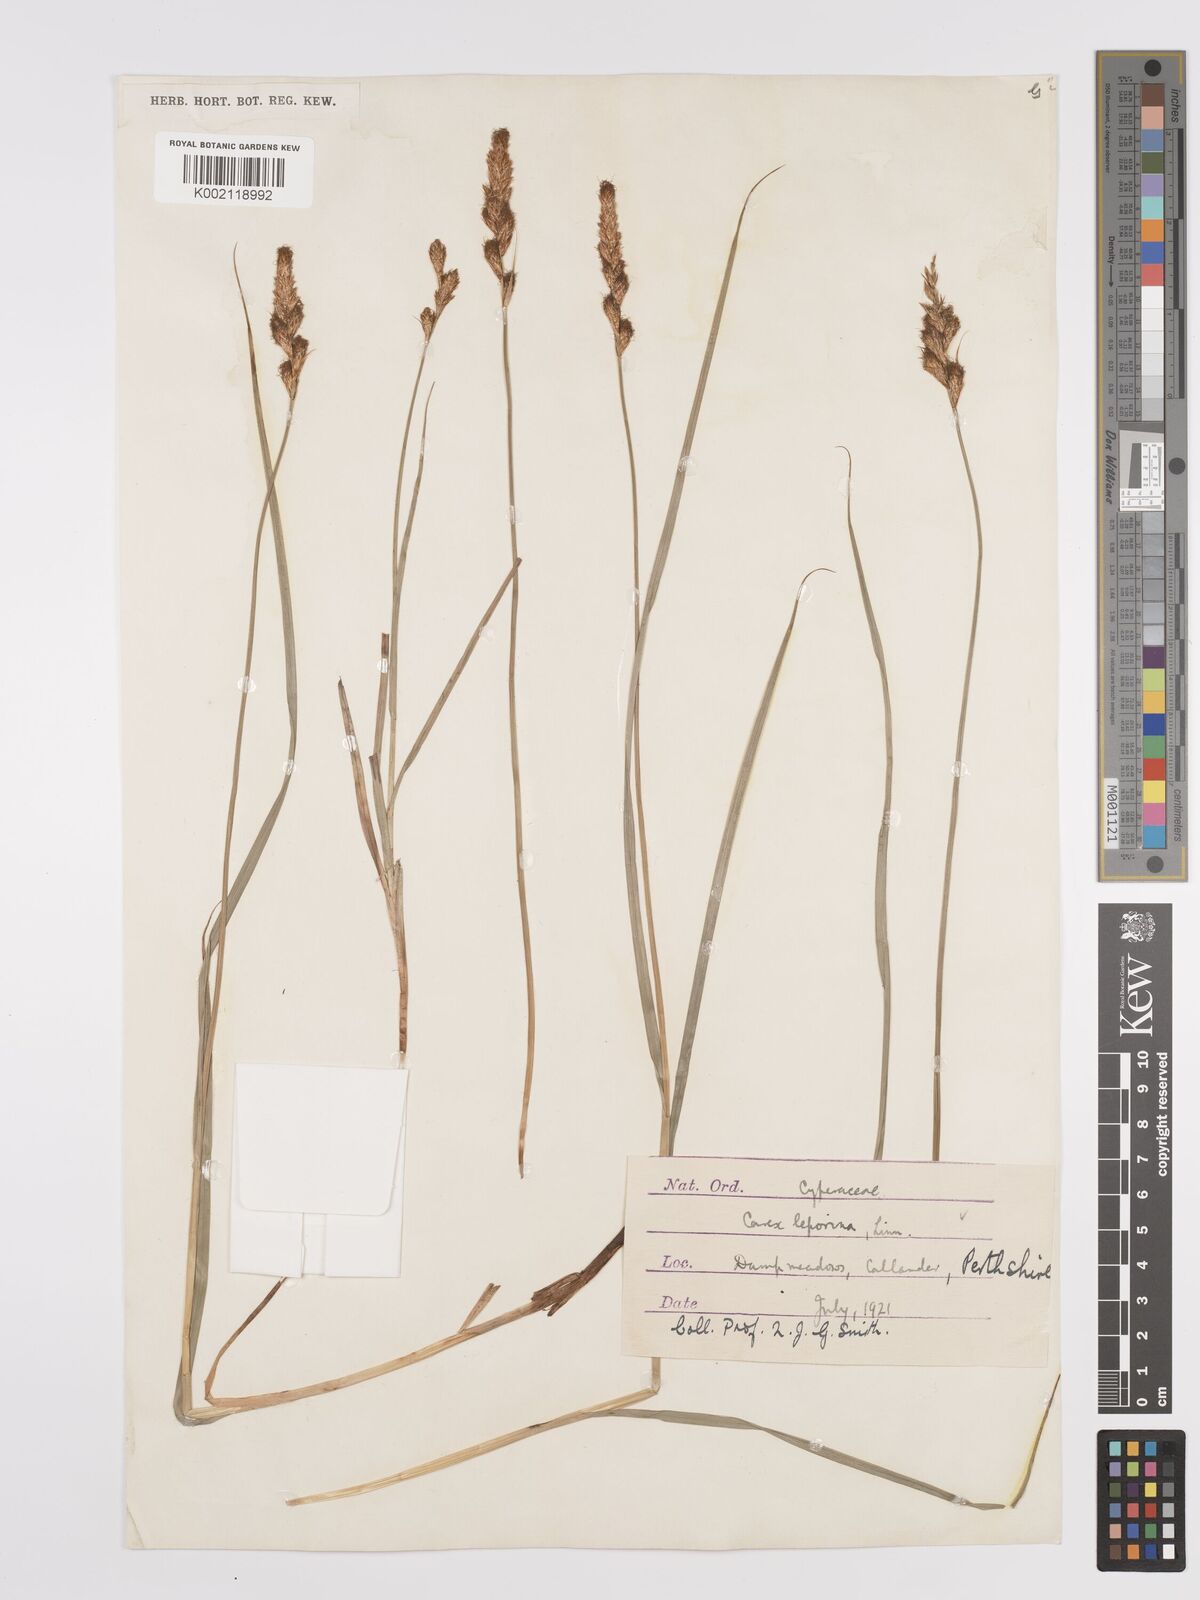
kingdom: Plantae
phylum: Tracheophyta
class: Liliopsida
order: Poales
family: Cyperaceae
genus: Carex
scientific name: Carex leporina
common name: Oval sedge
